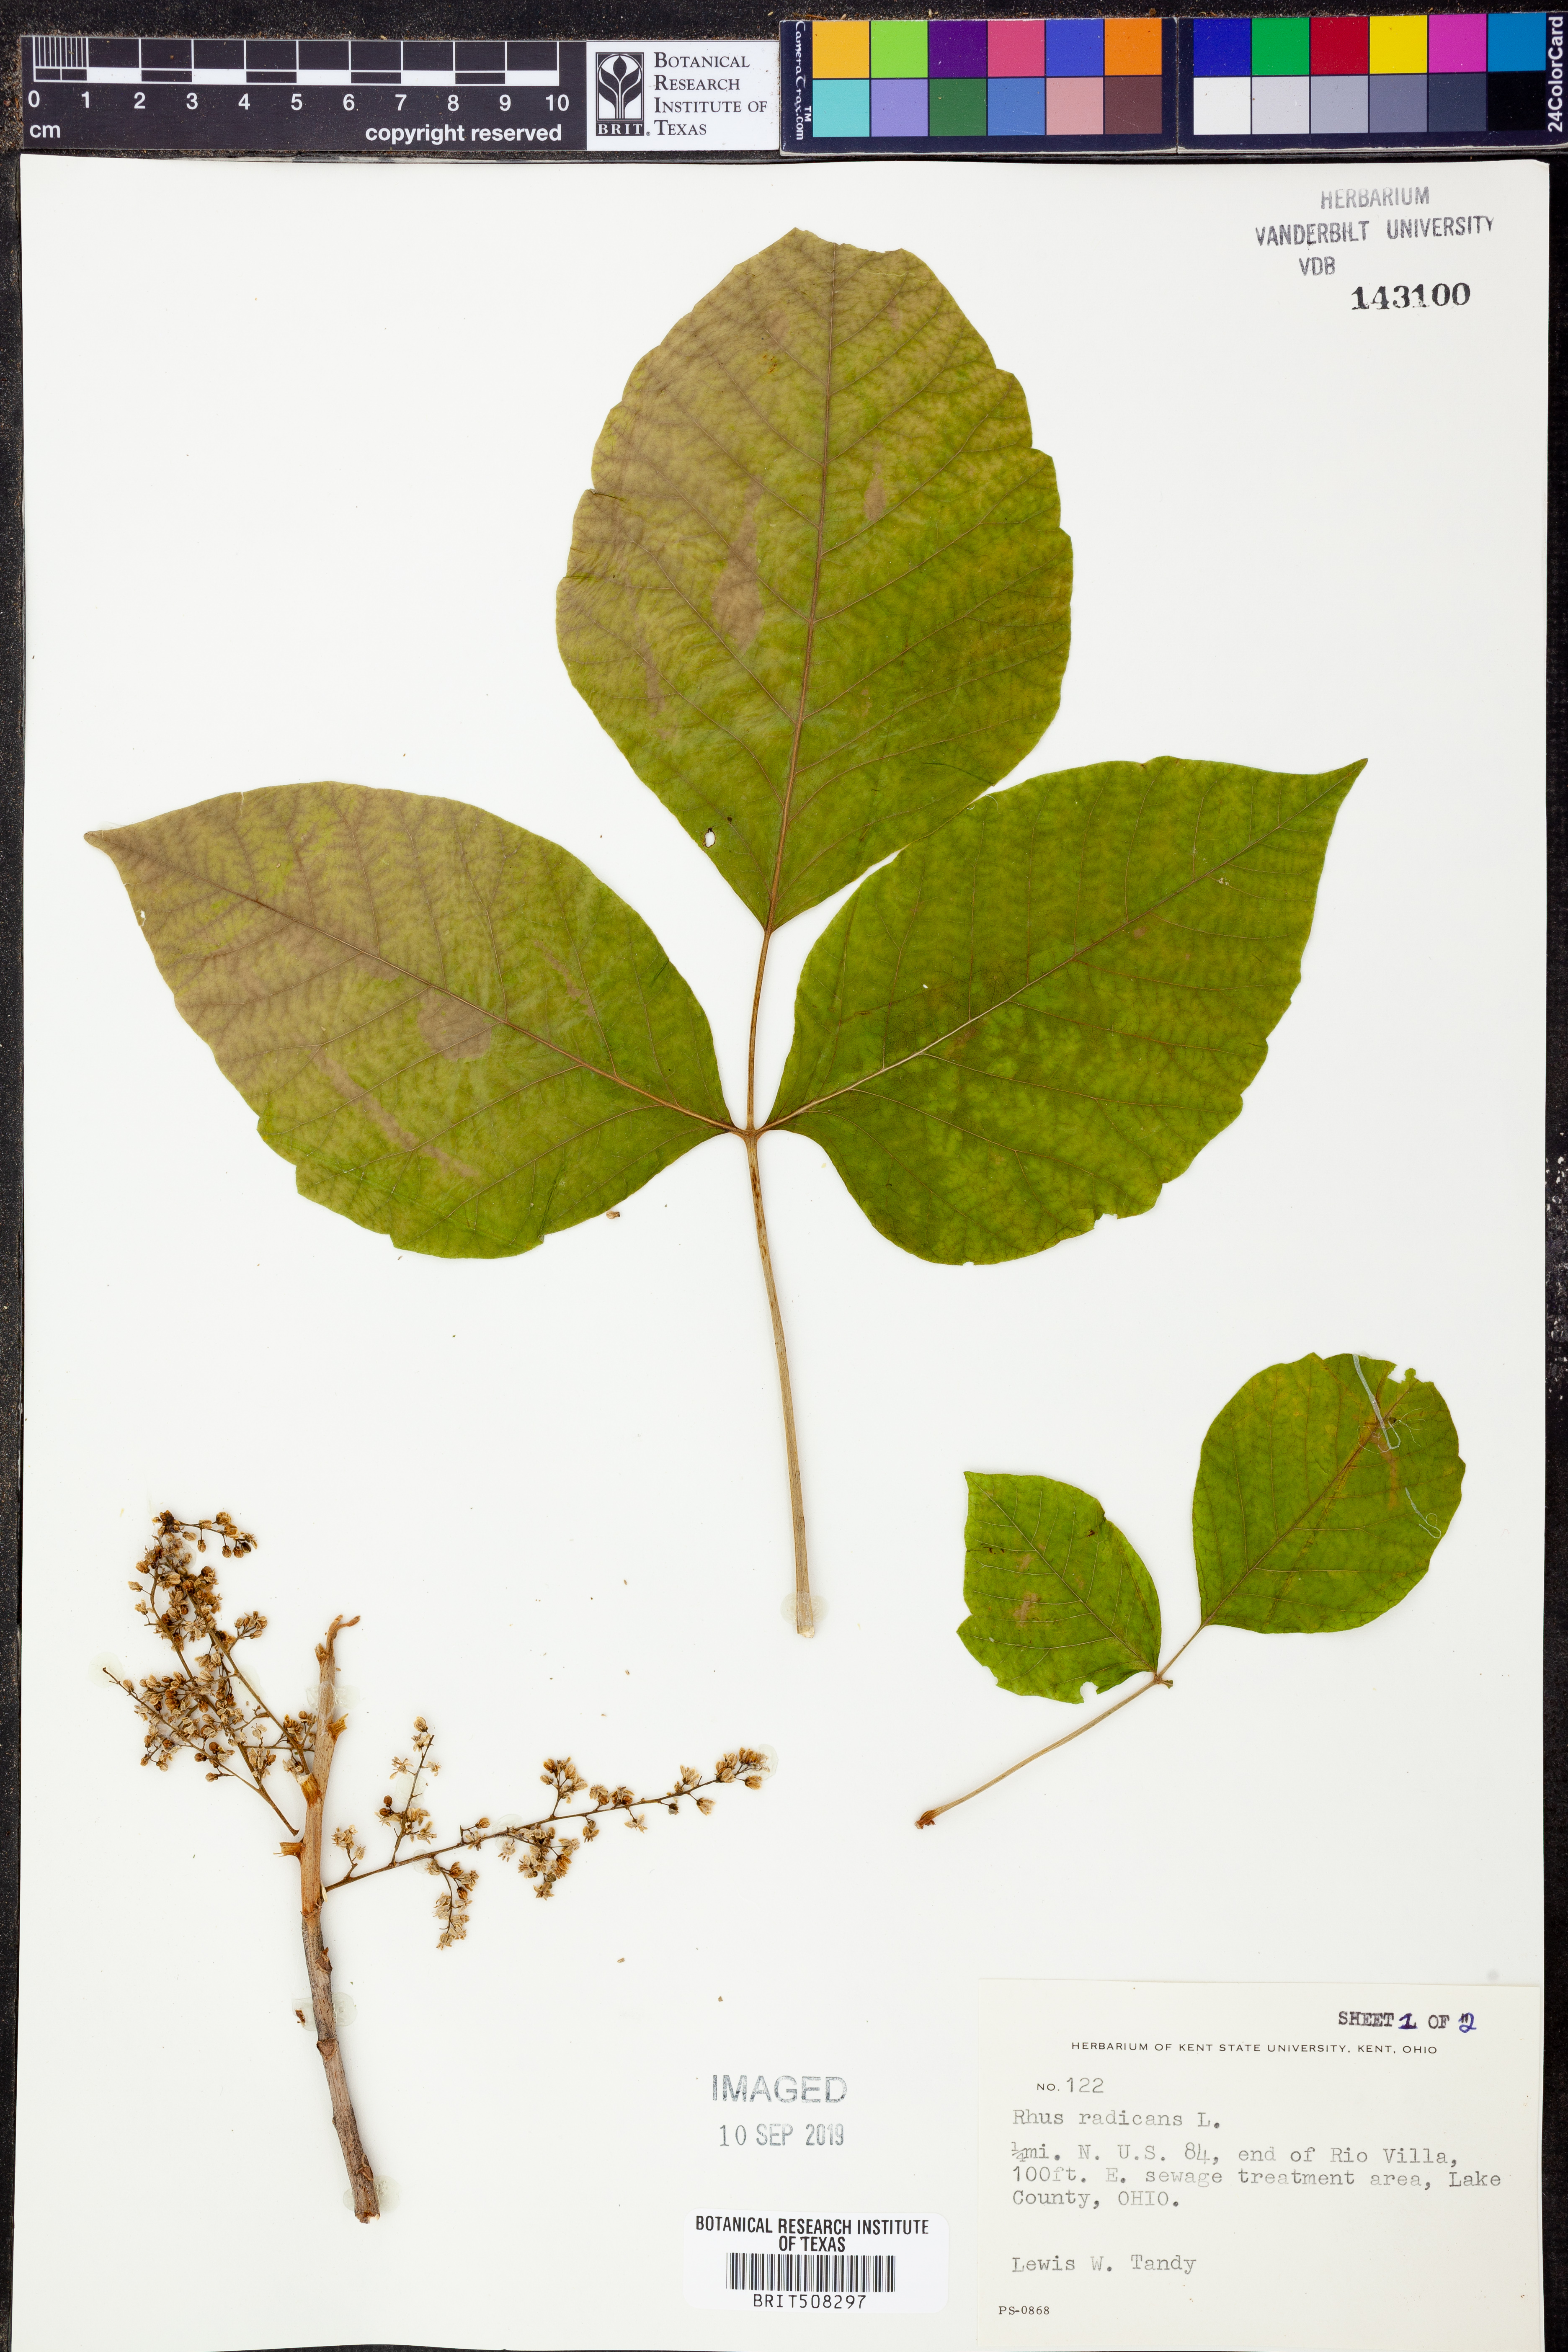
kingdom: Plantae
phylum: Tracheophyta
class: Magnoliopsida
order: Sapindales
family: Anacardiaceae
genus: Toxicodendron
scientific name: Toxicodendron radicans
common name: Poison ivy
